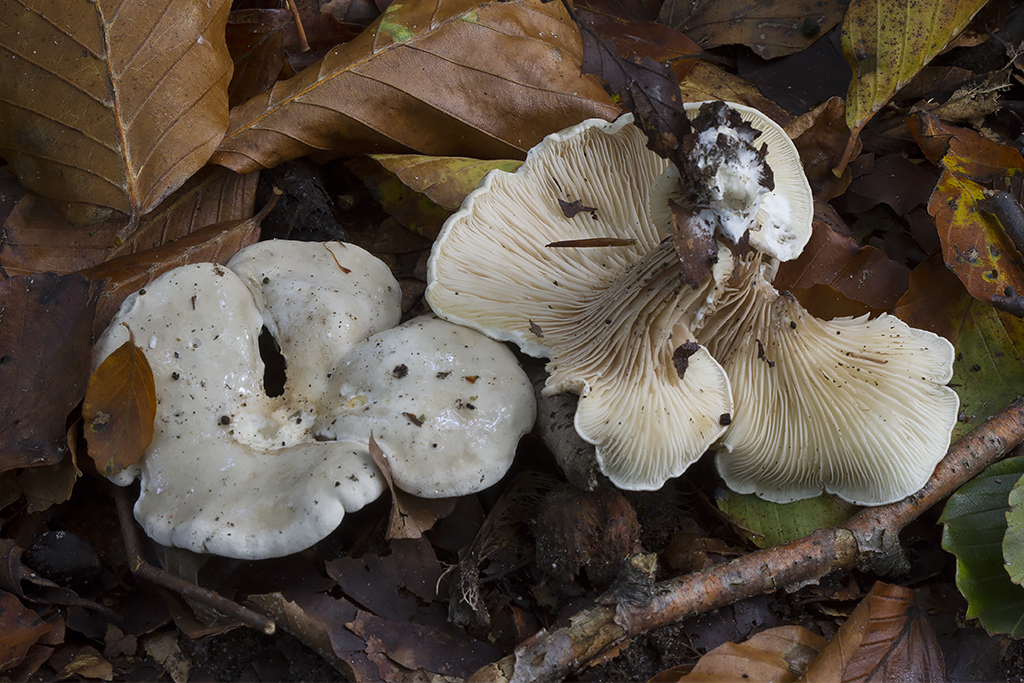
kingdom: Fungi
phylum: Basidiomycota
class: Agaricomycetes
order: Agaricales
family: Entolomataceae
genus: Clitopilus
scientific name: Clitopilus prunulus
